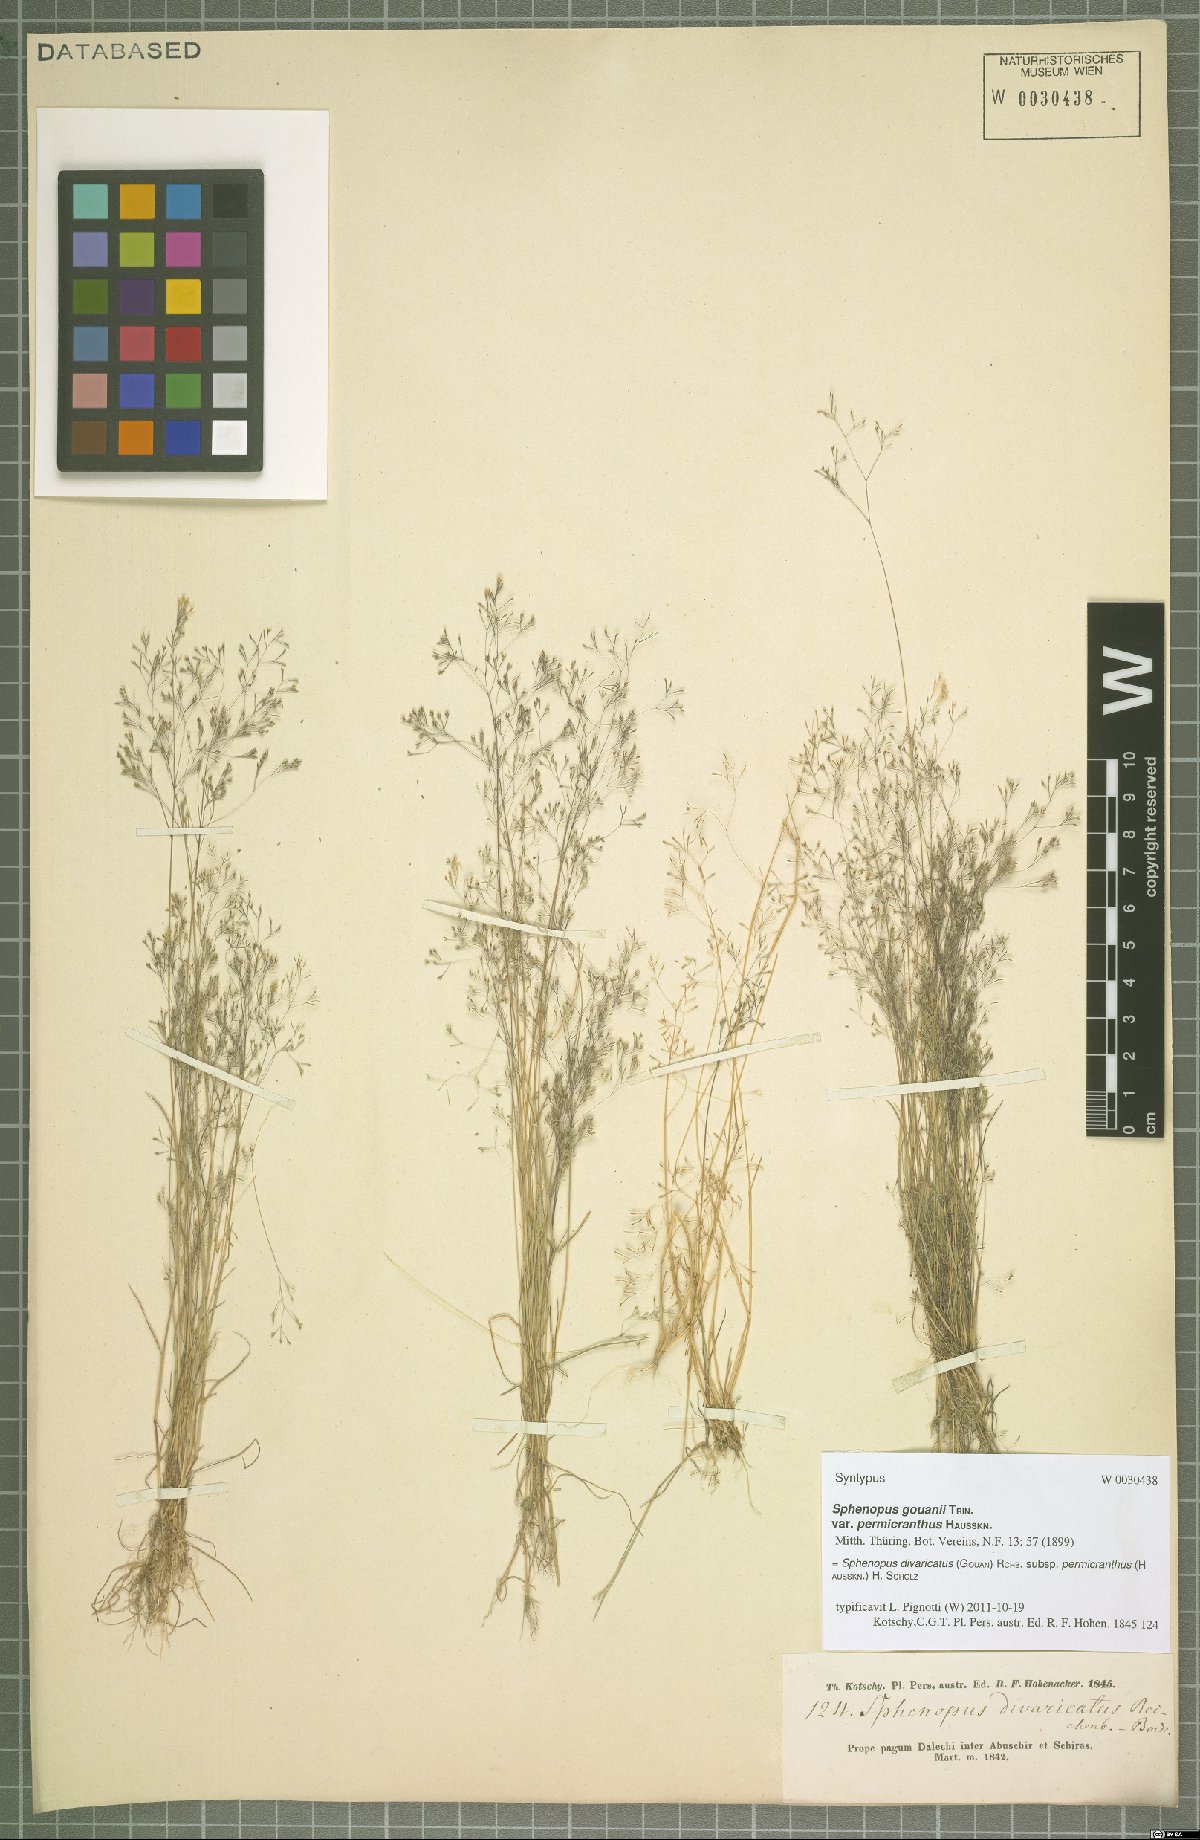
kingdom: Plantae
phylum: Tracheophyta
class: Liliopsida
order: Poales
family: Poaceae
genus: Sphenopus
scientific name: Sphenopus divaricatus
